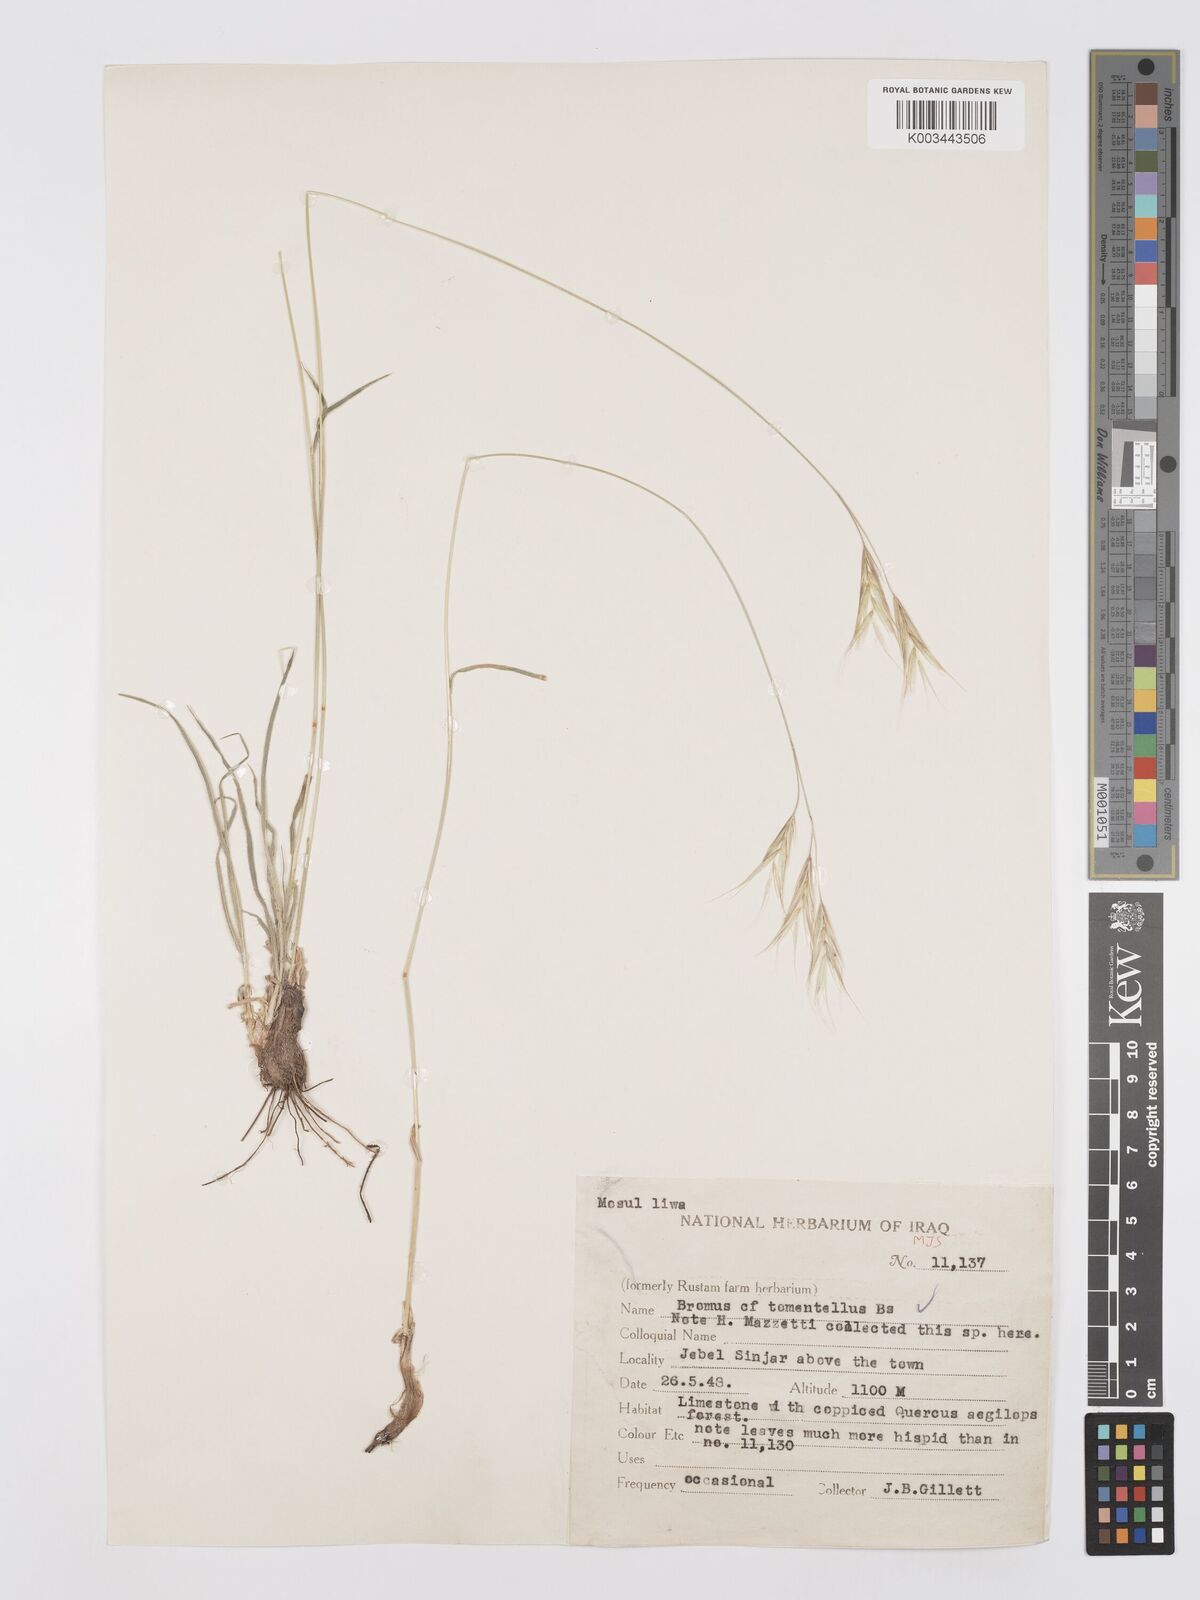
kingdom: Plantae
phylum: Tracheophyta
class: Liliopsida
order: Poales
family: Poaceae
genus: Bromus
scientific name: Bromus tomentellus
